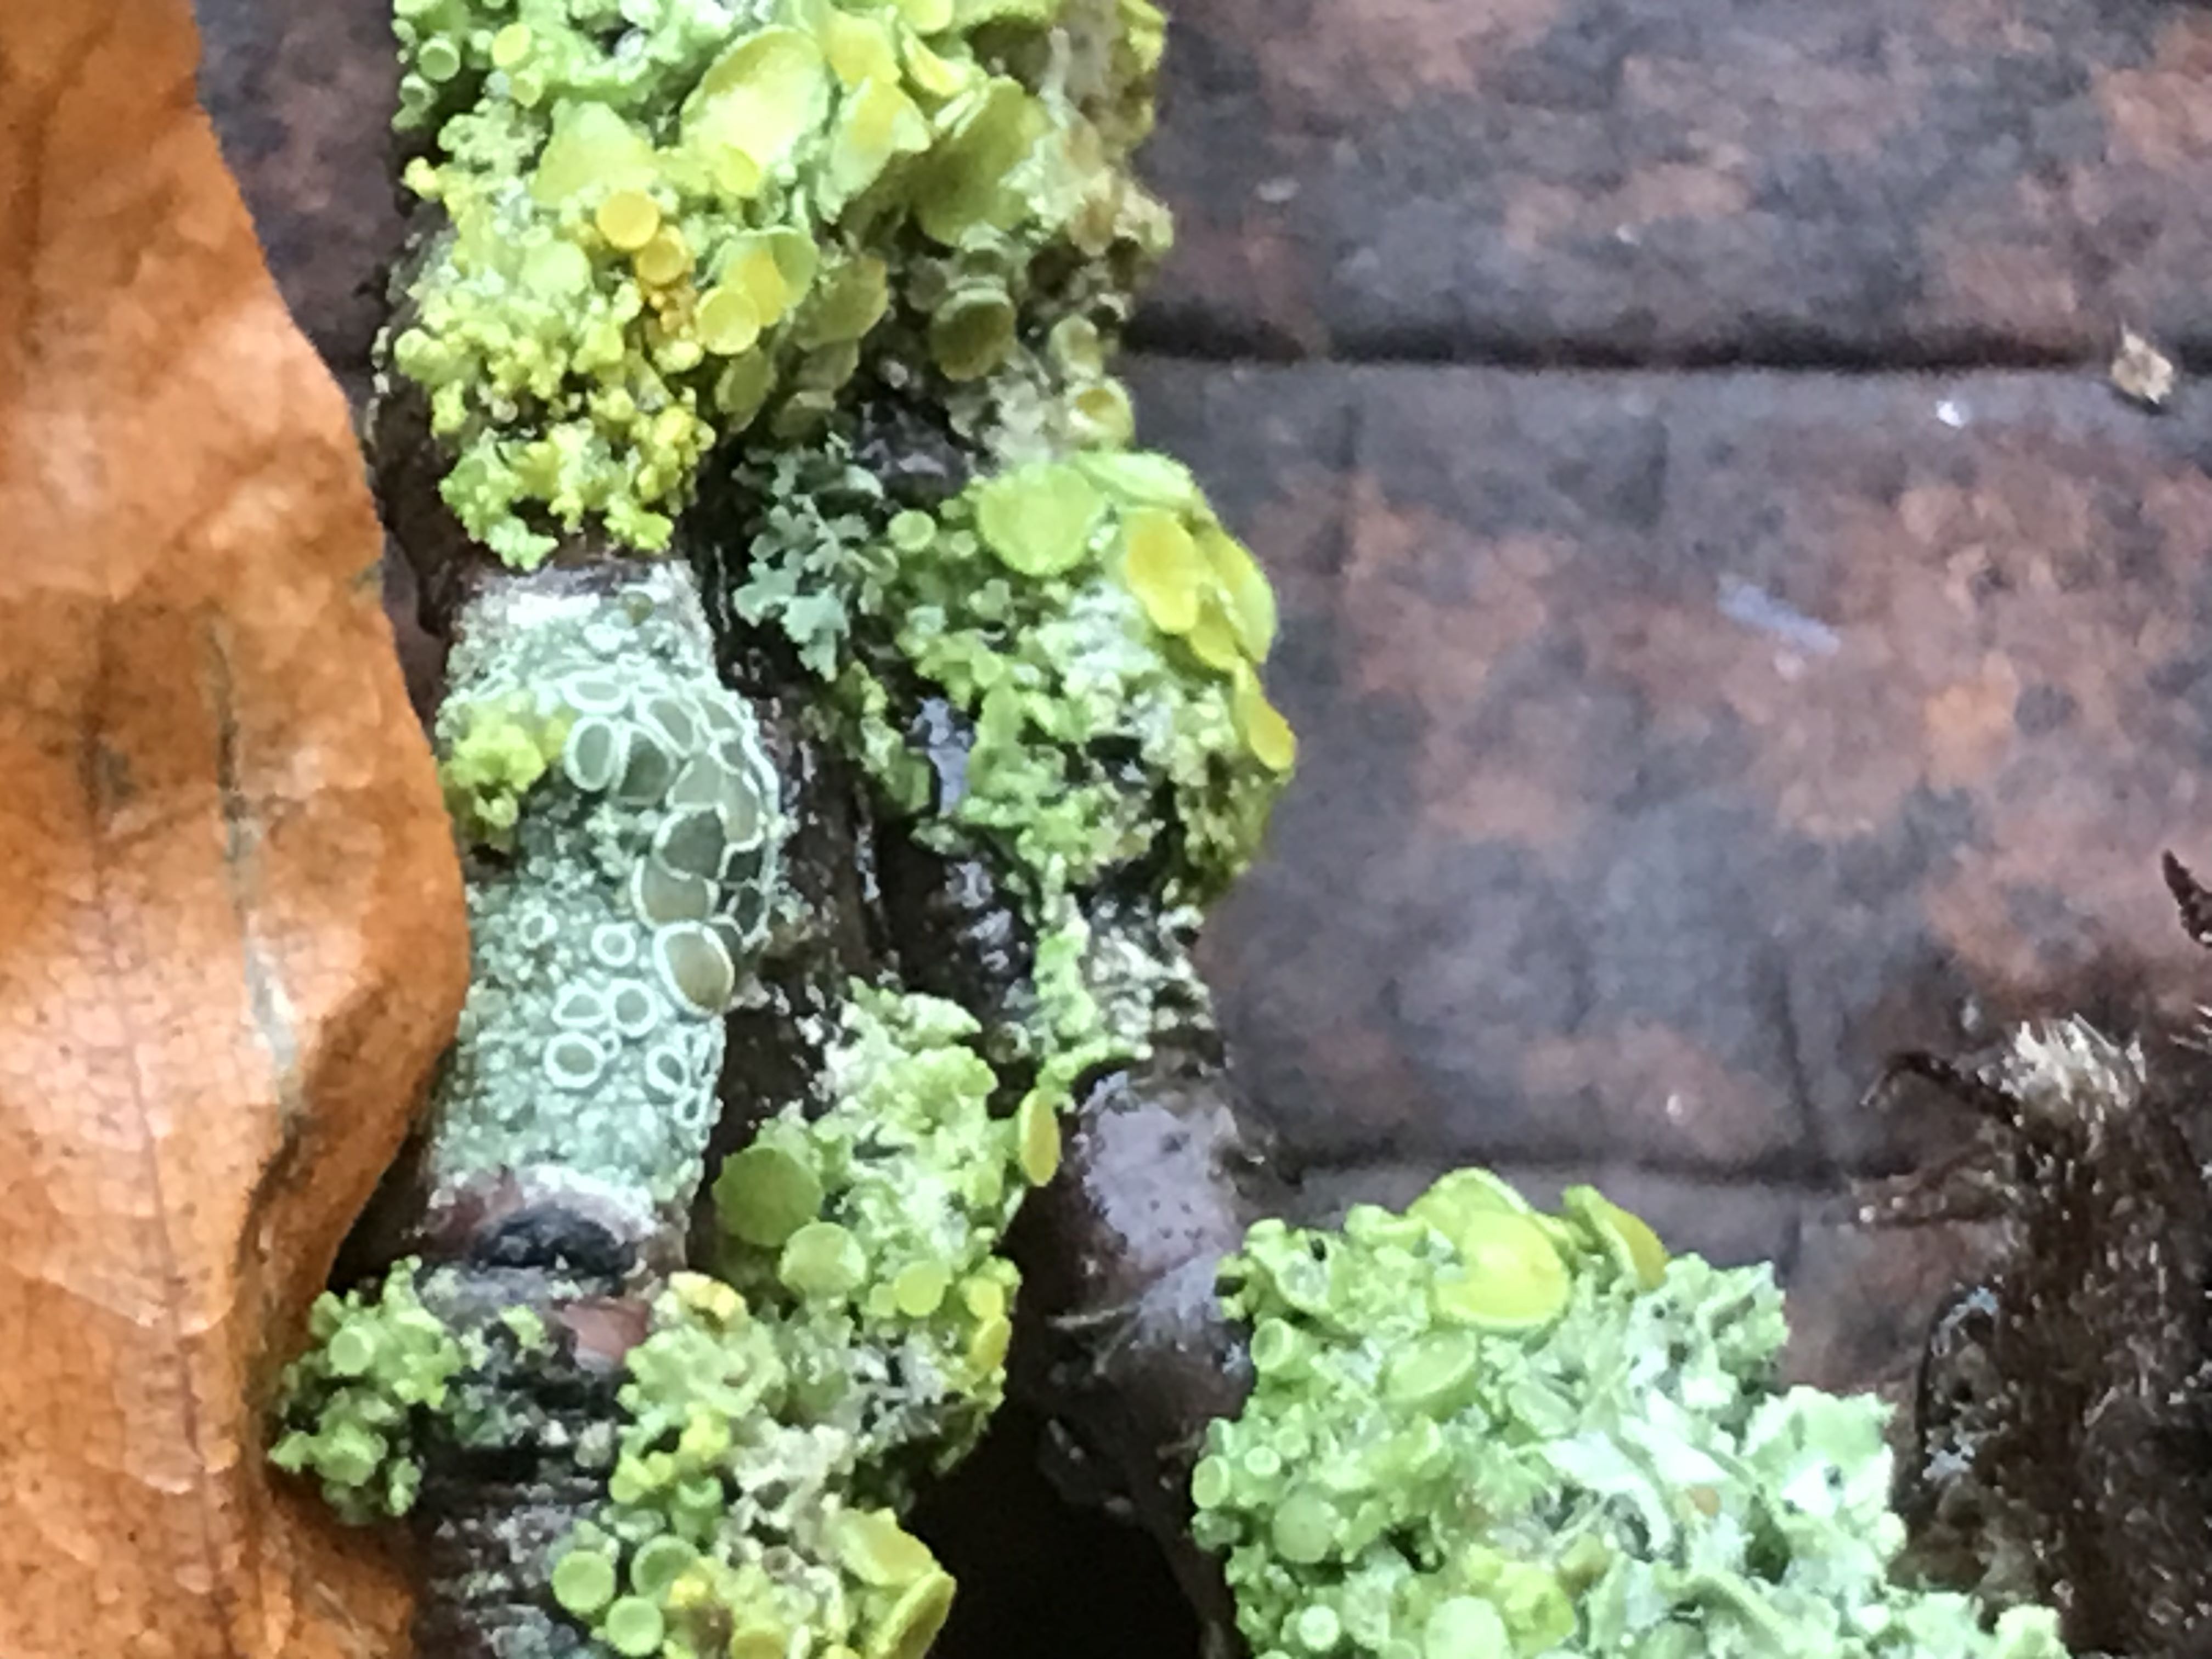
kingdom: Fungi
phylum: Ascomycota
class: Lecanoromycetes
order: Teloschistales
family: Teloschistaceae
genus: Polycauliona
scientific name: Polycauliona polycarpa
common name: mangefrugtet orangelav
